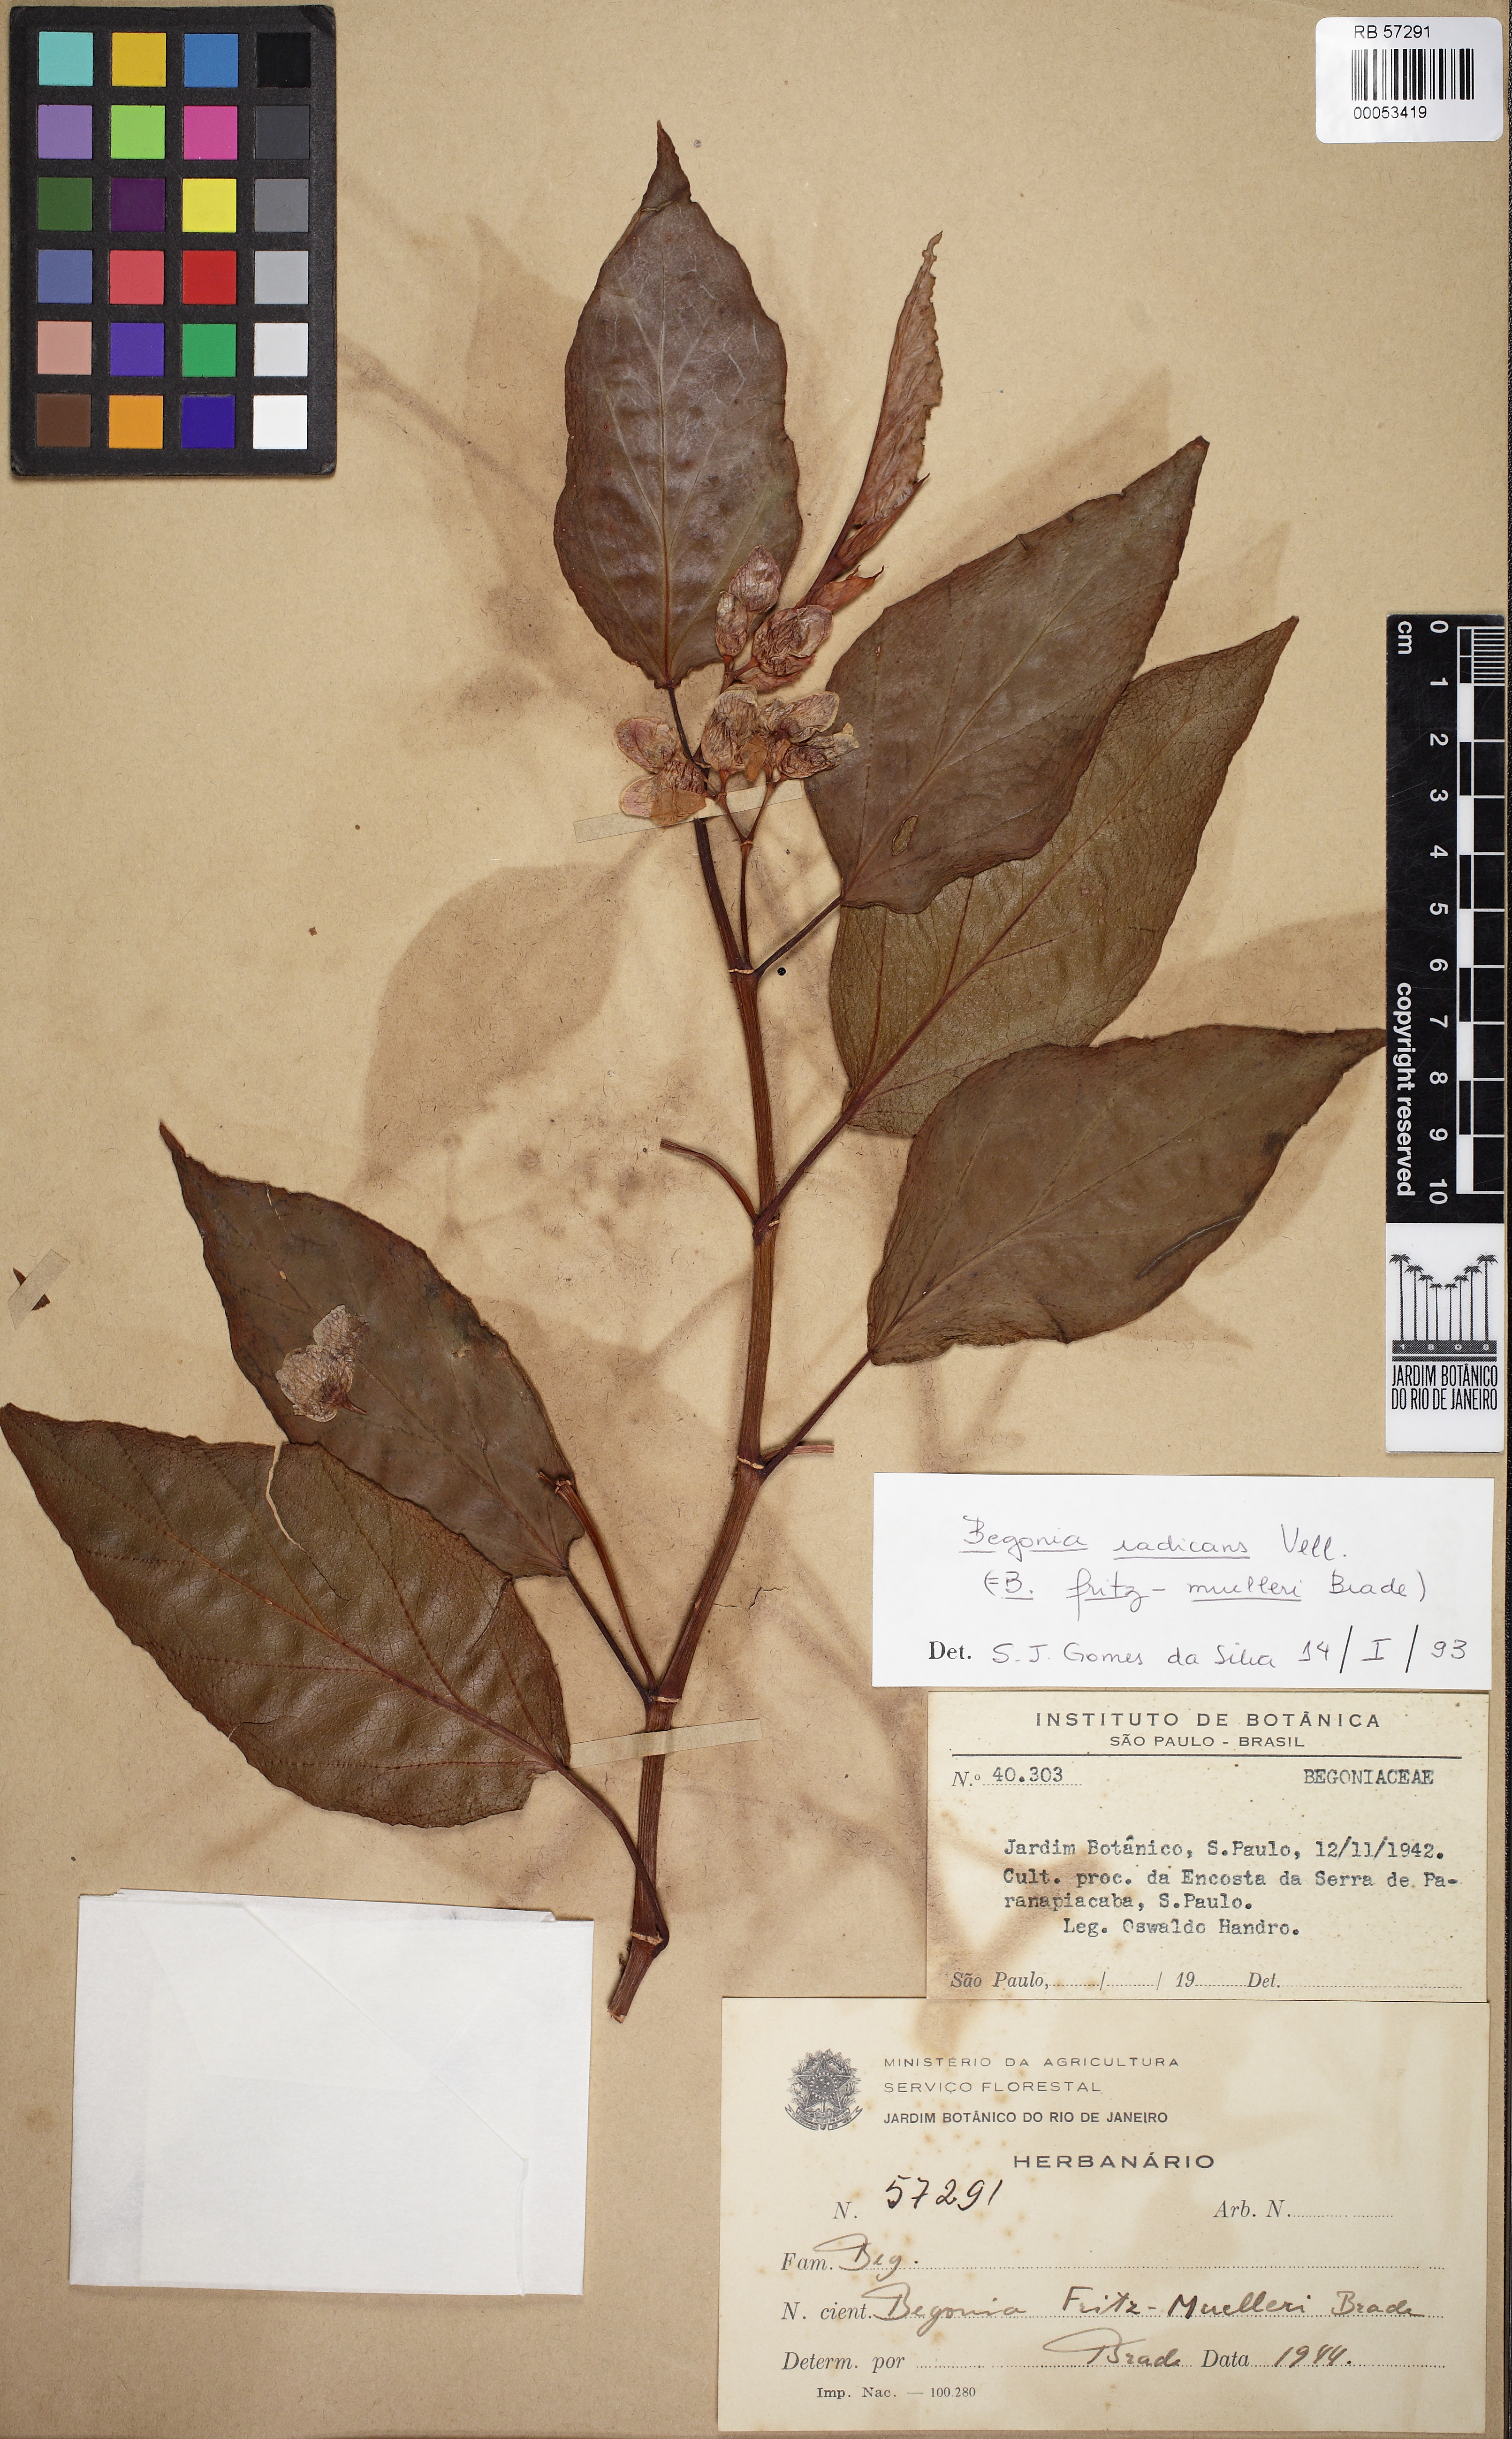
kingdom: Plantae
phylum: Tracheophyta
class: Magnoliopsida
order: Cucurbitales
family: Begoniaceae
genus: Begonia
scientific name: Begonia radicans
